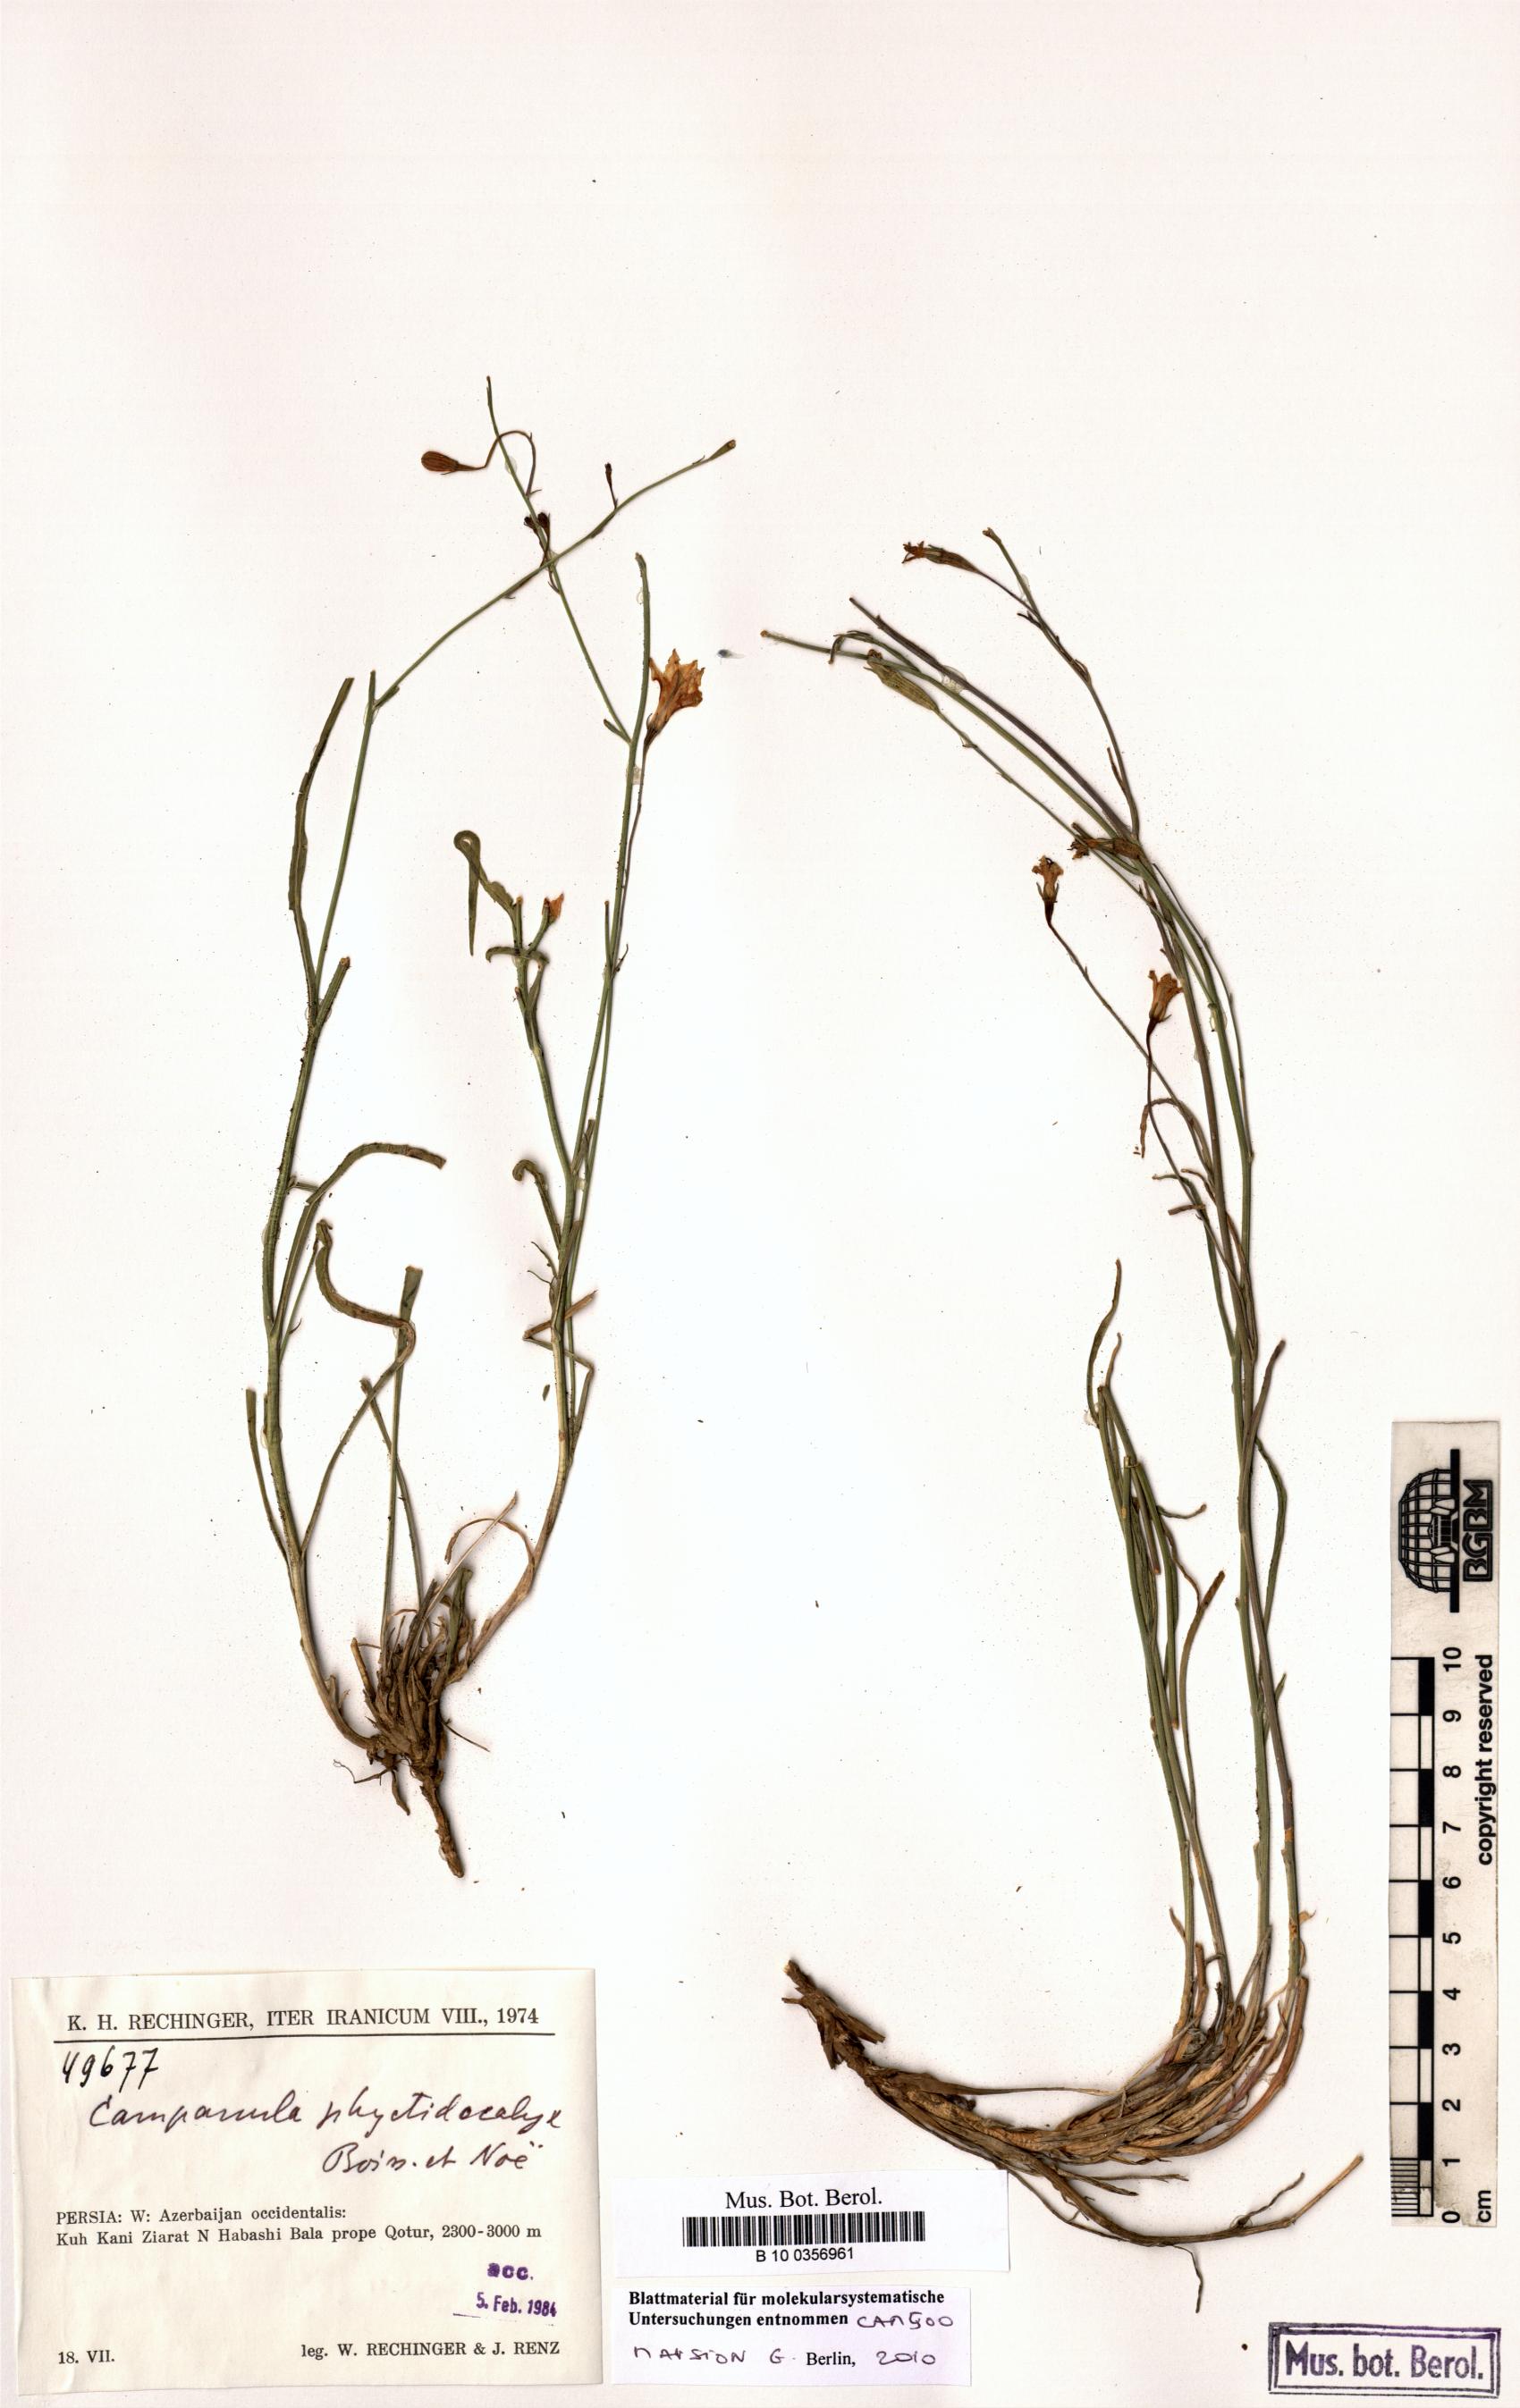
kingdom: Plantae
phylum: Tracheophyta
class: Magnoliopsida
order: Asterales
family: Campanulaceae
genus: Campanula
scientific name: Campanula phyctidocalyx
